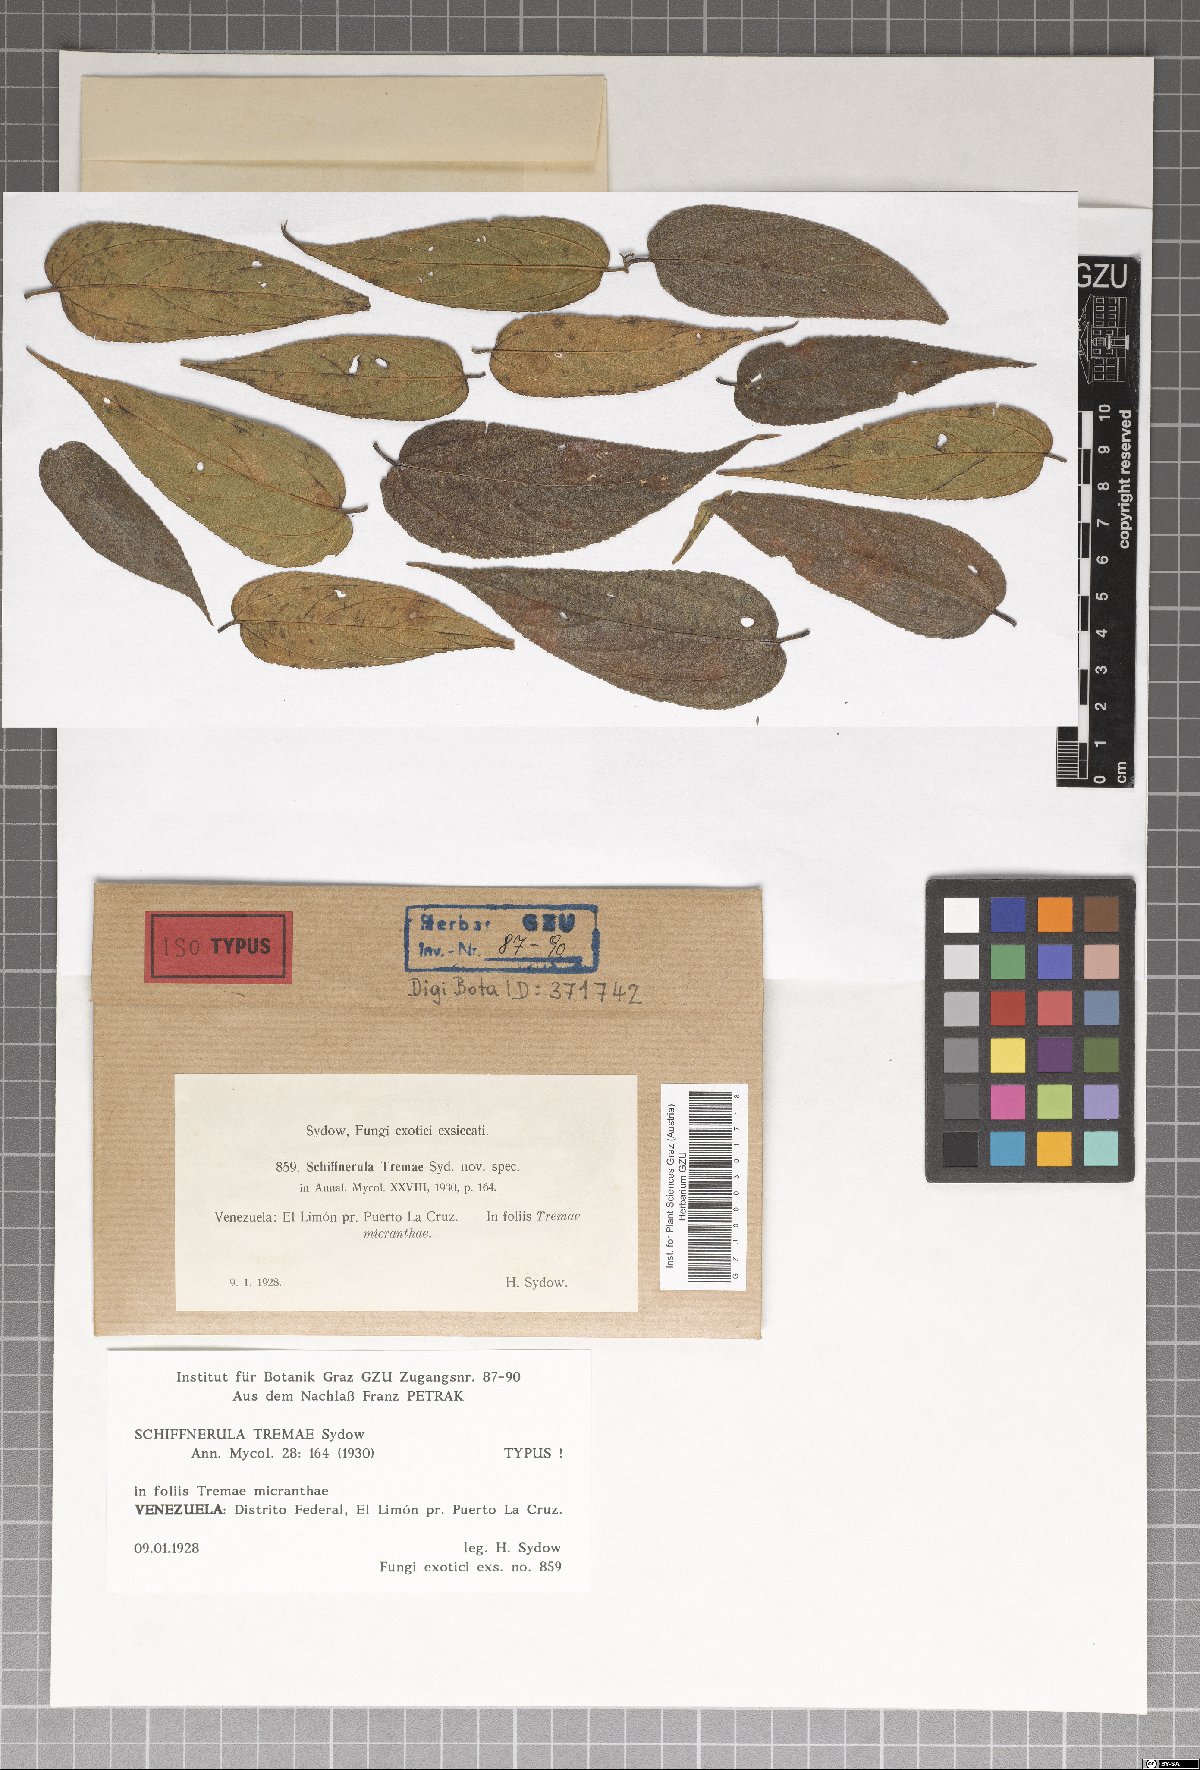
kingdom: Fungi
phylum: Ascomycota
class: Dothideomycetes
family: Englerulaceae
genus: Schiffnerula
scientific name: Schiffnerula
